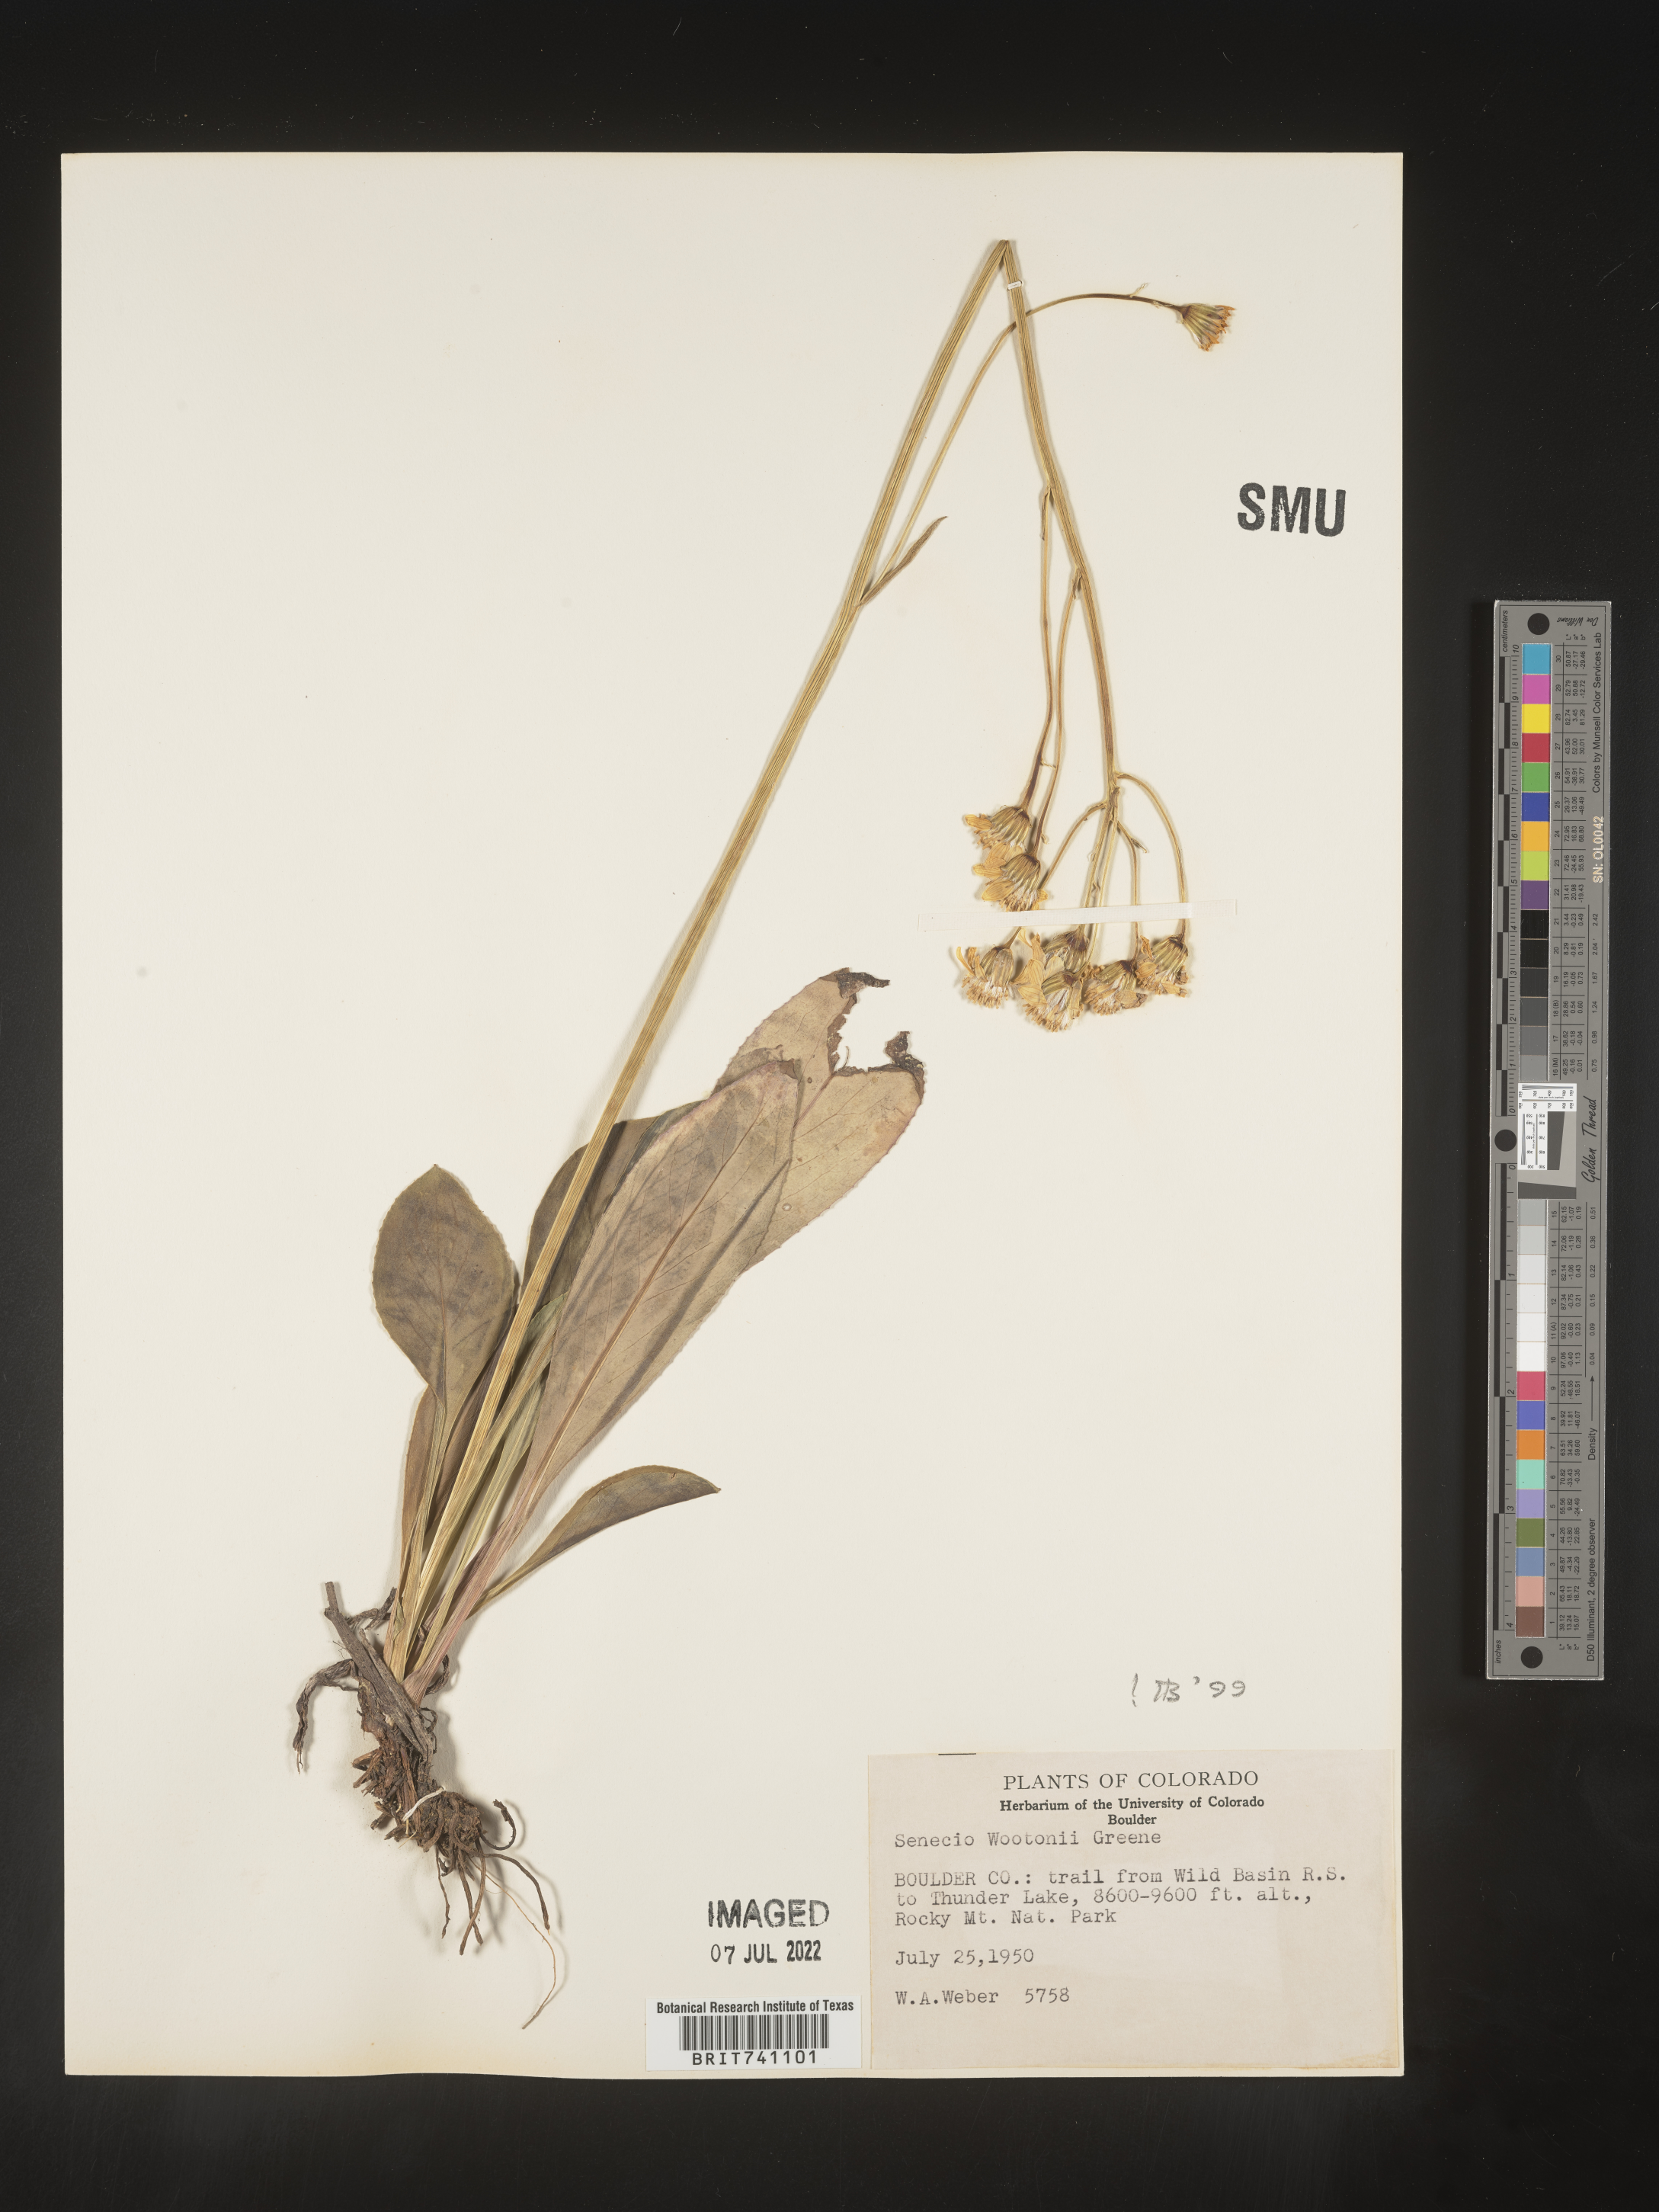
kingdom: Plantae
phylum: Tracheophyta
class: Magnoliopsida
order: Asterales
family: Asteraceae
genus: Senecio
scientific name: Senecio wootonii
